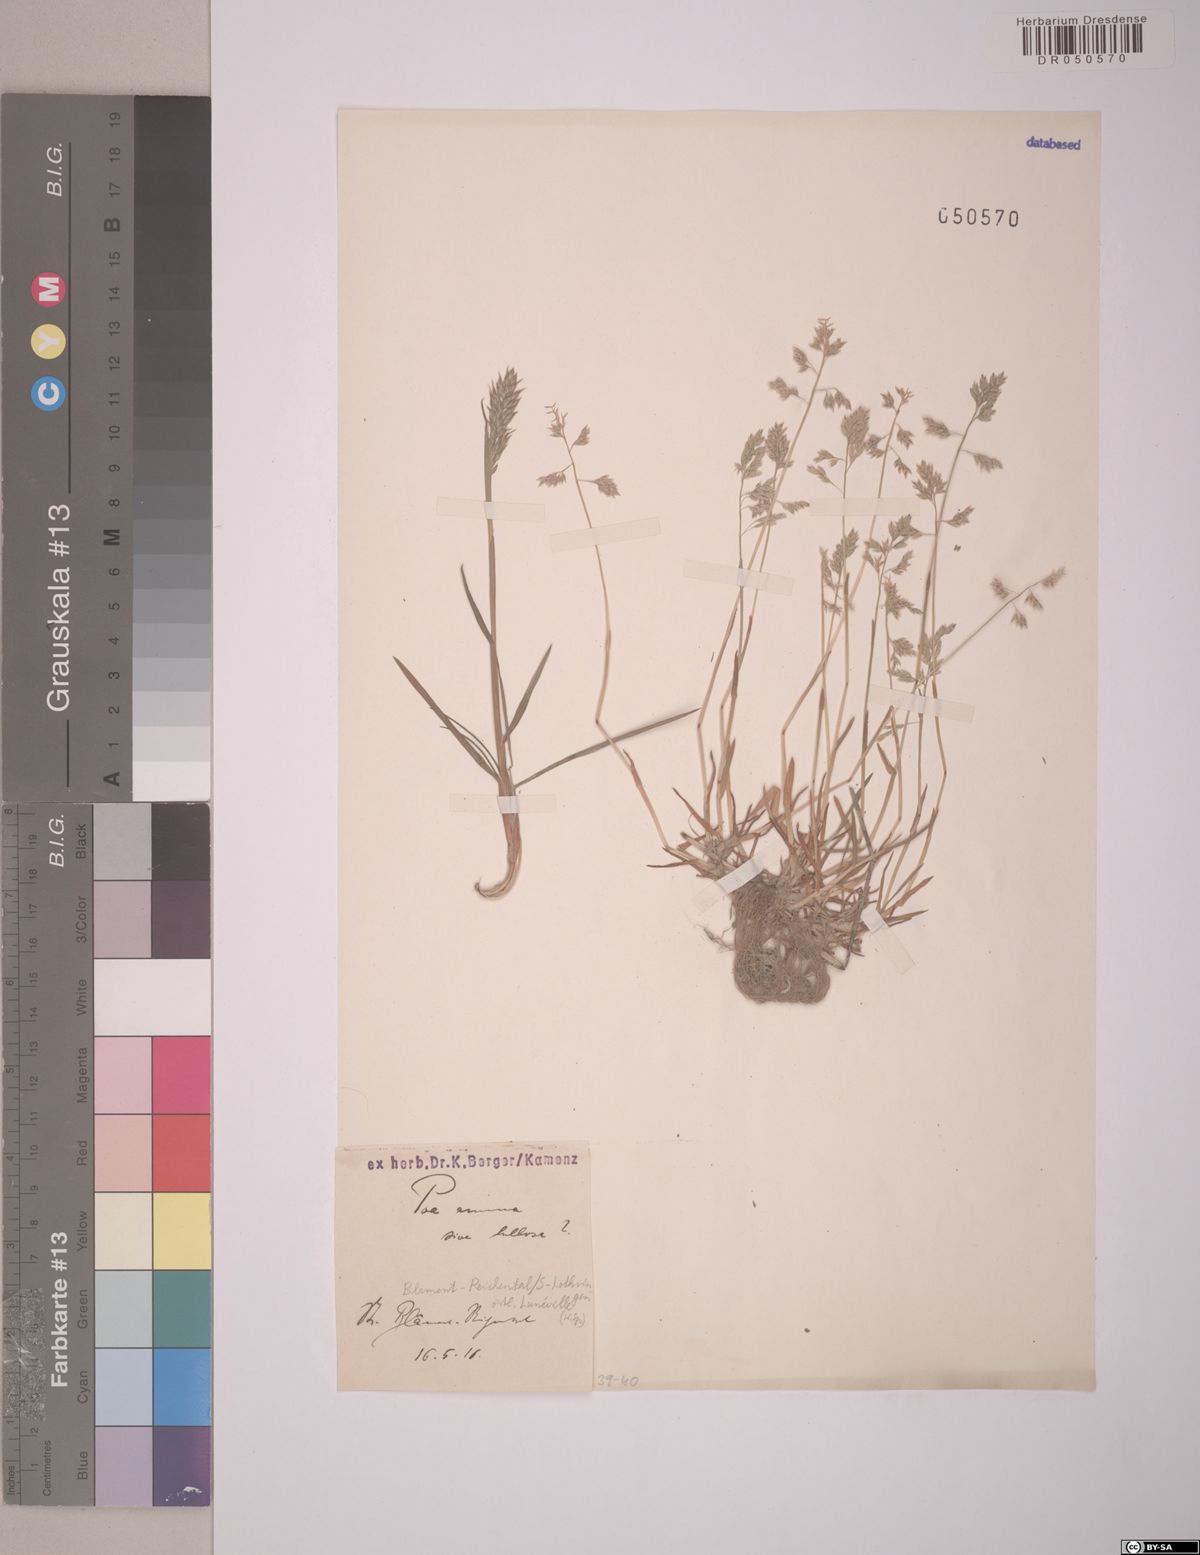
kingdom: Plantae
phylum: Tracheophyta
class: Liliopsida
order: Poales
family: Poaceae
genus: Poa
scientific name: Poa annua
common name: Annual bluegrass
